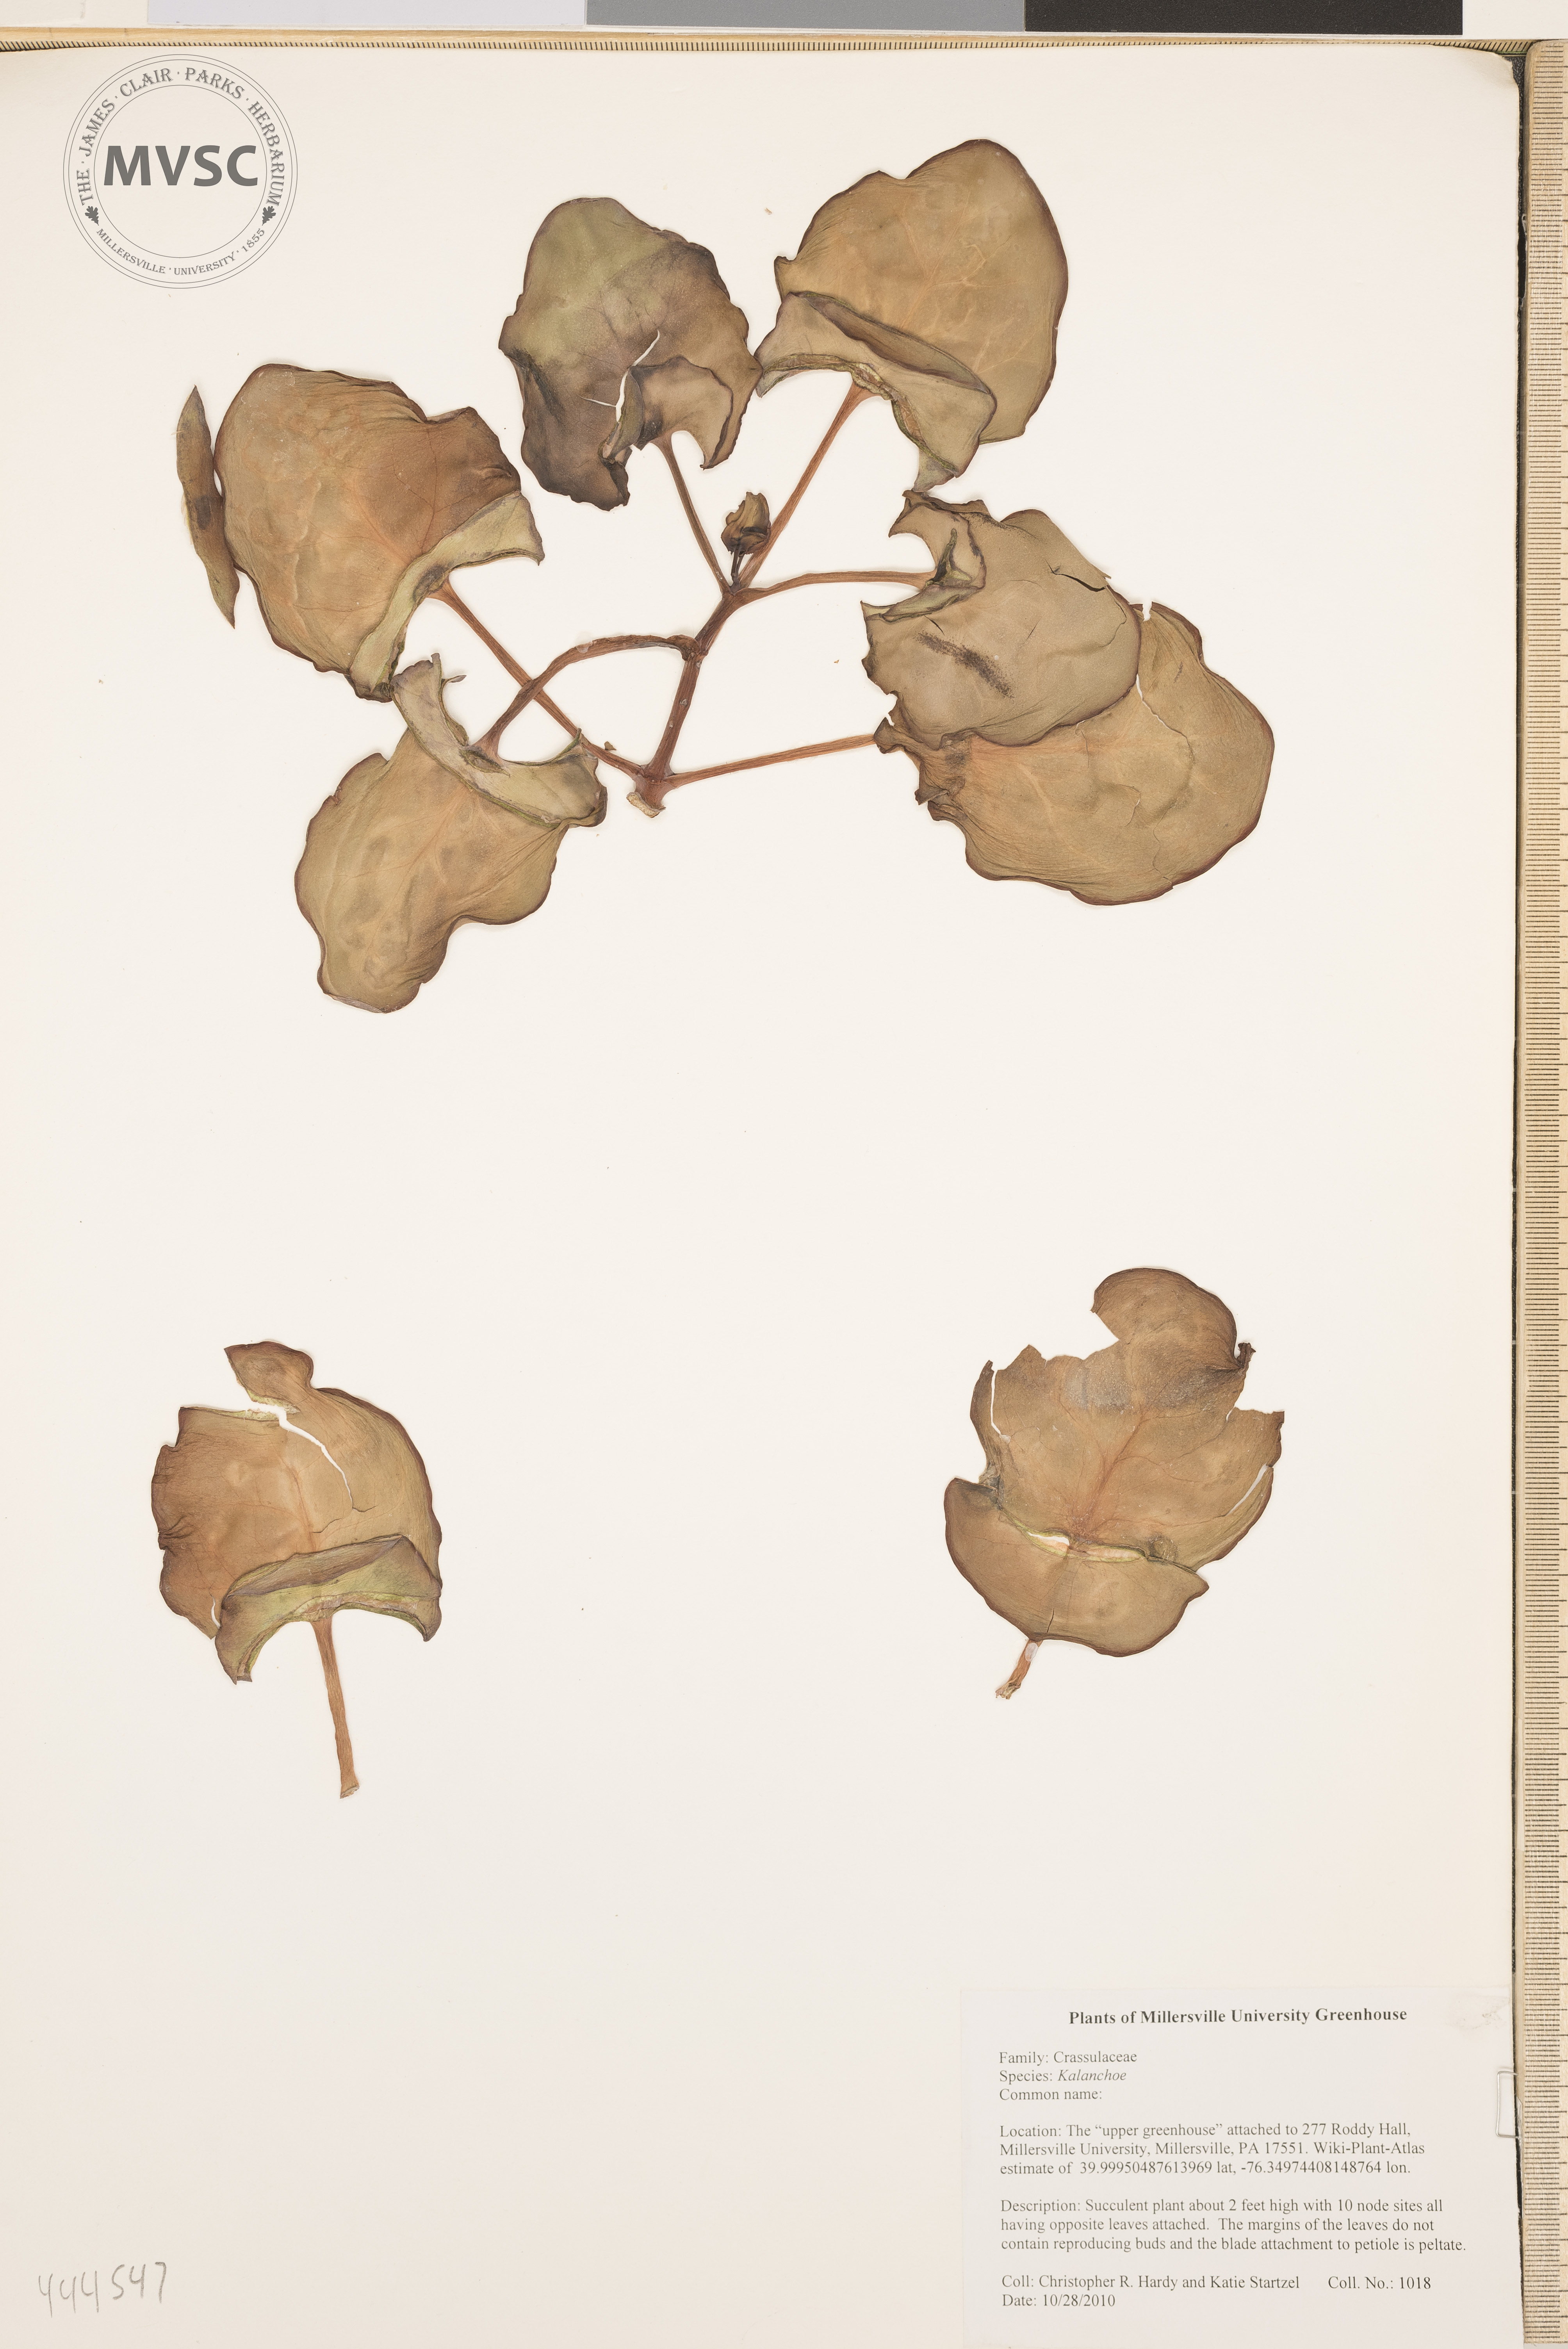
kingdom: Plantae
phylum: Tracheophyta
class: Magnoliopsida
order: Saxifragales
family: Crassulaceae
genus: Kalanchoe
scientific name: Kalanchoe
